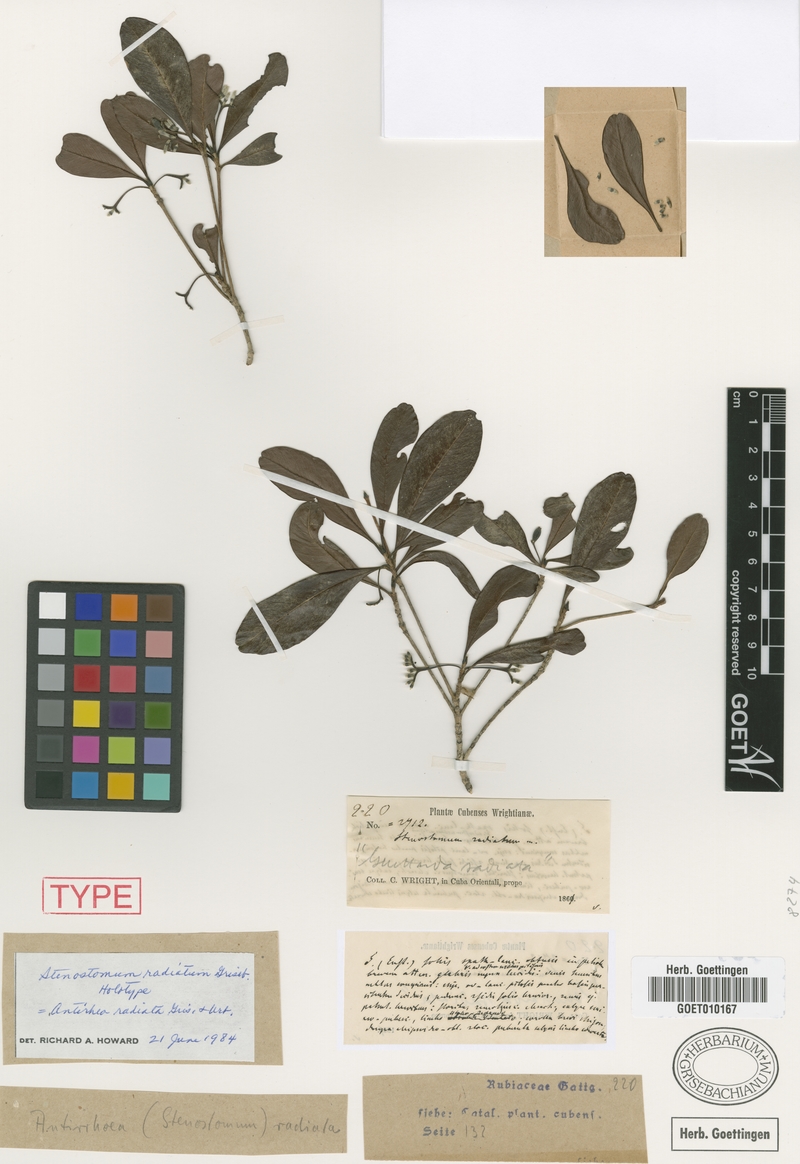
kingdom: Plantae
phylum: Tracheophyta
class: Magnoliopsida
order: Gentianales
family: Rubiaceae
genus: Stenostomum
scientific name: Stenostomum radiatum
